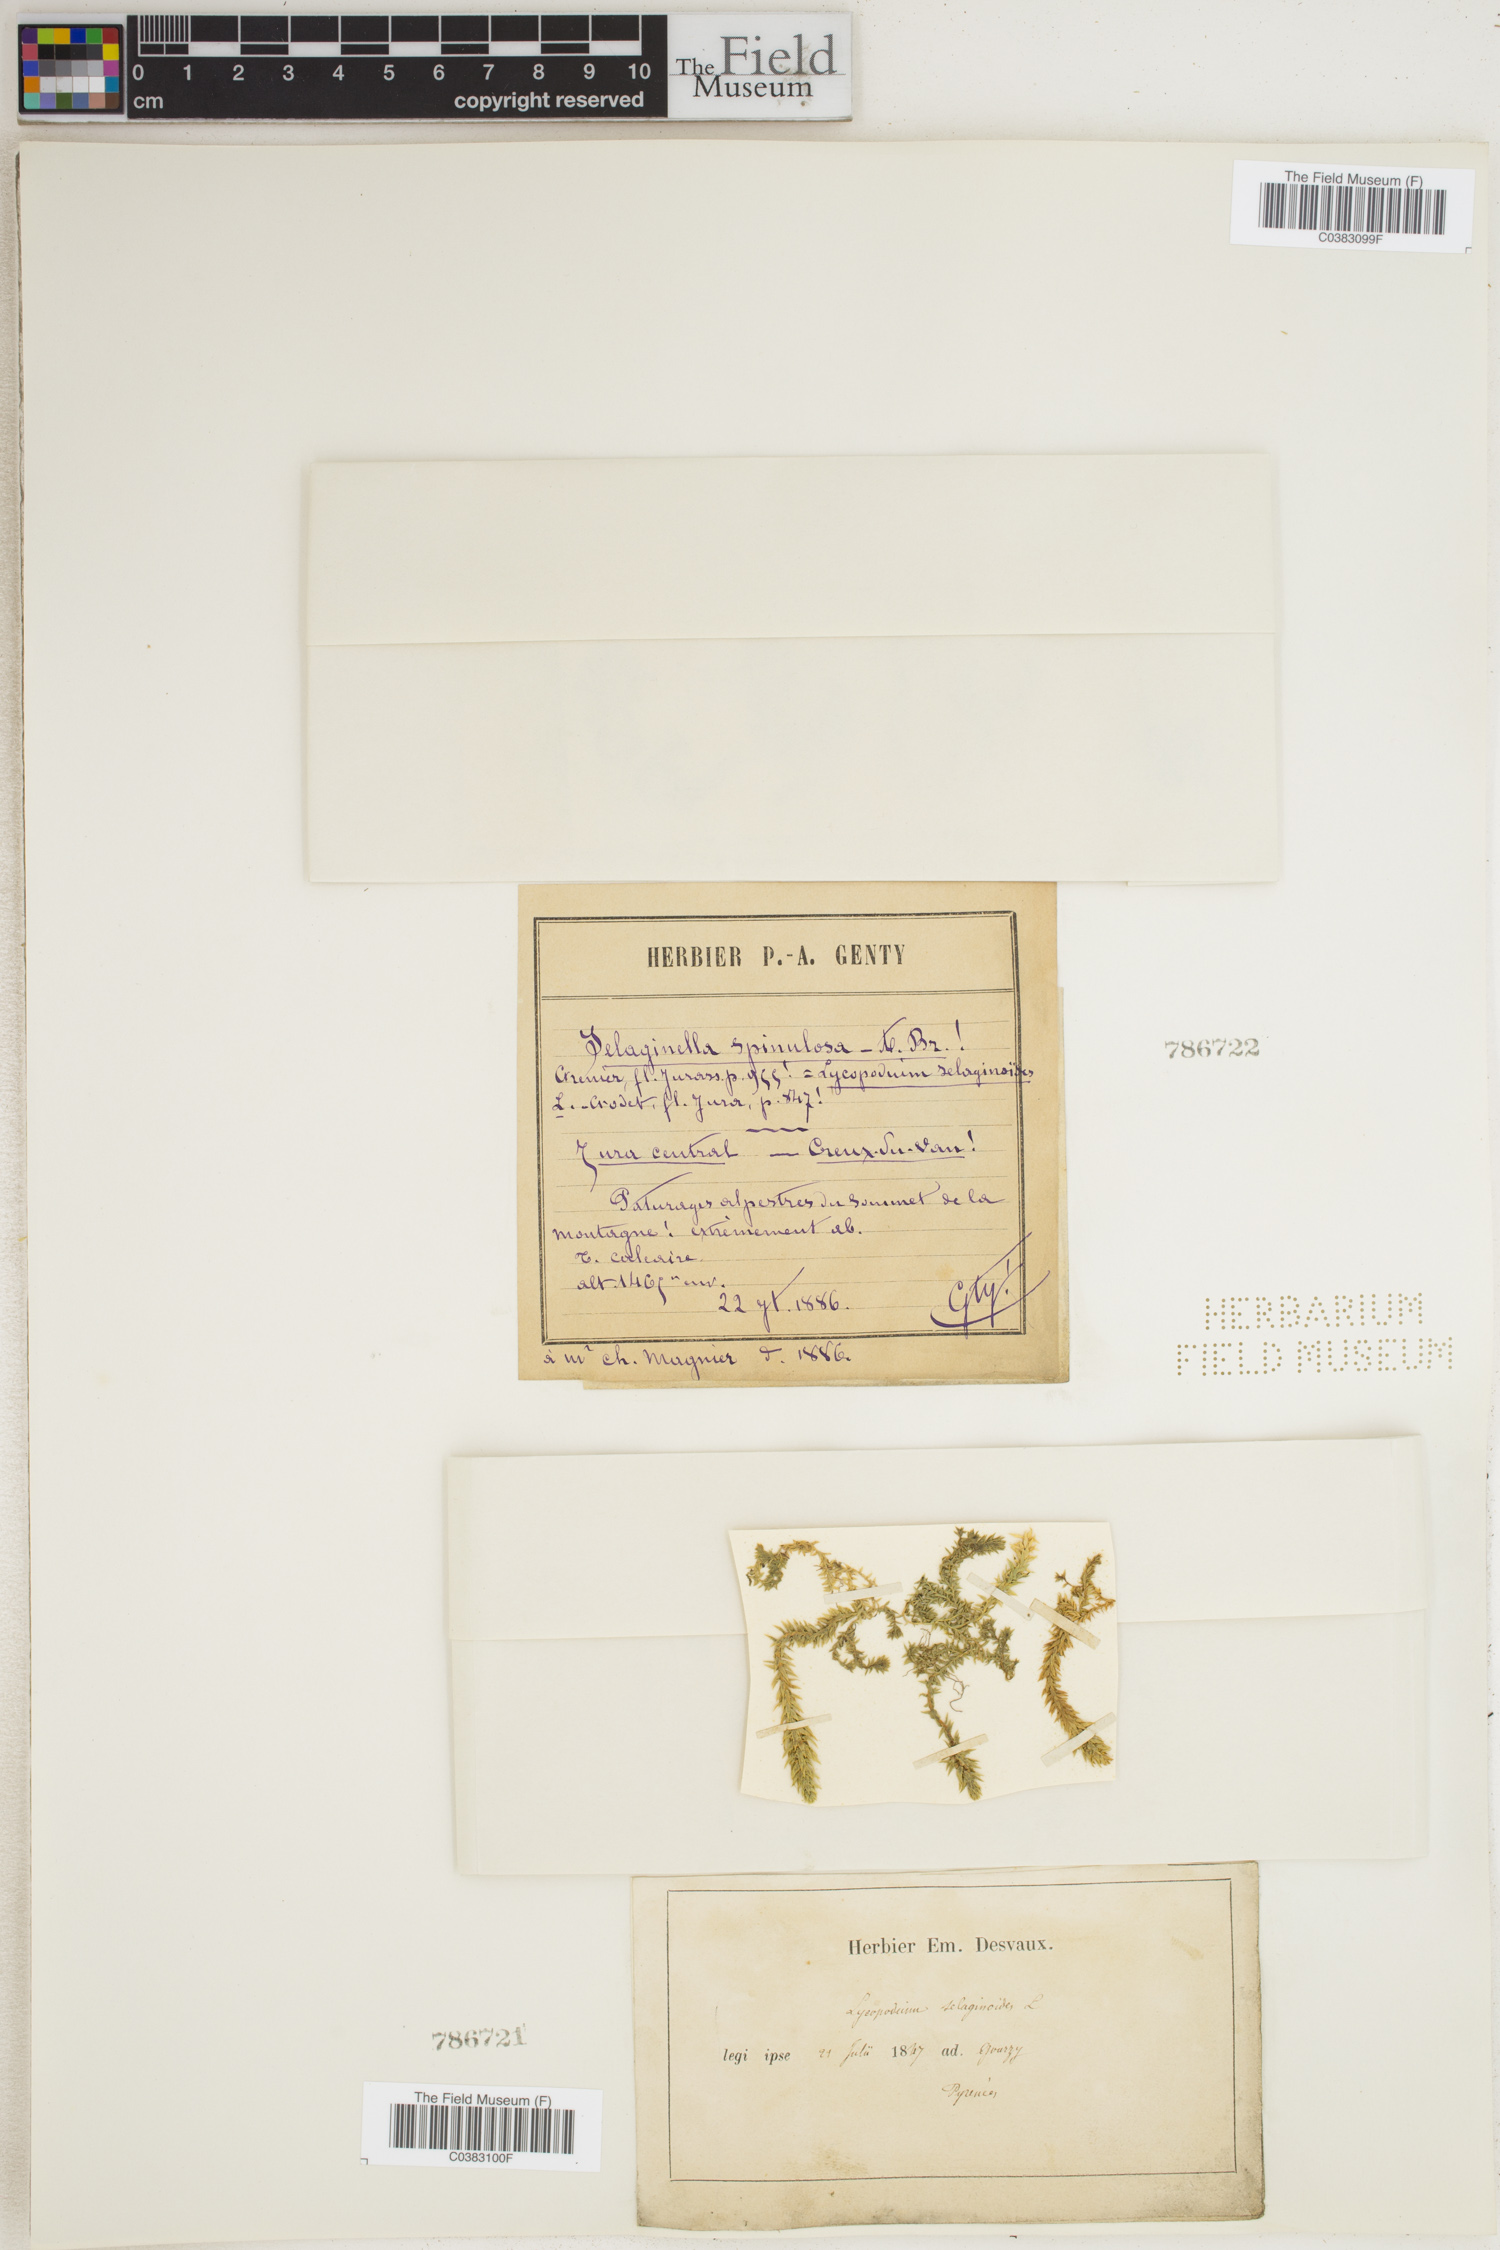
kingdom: Plantae
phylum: Tracheophyta
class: Lycopodiopsida
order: Selaginellales
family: Selaginellaceae
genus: Selaginella
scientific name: Selaginella selaginoides
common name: Prickly mountain-moss
